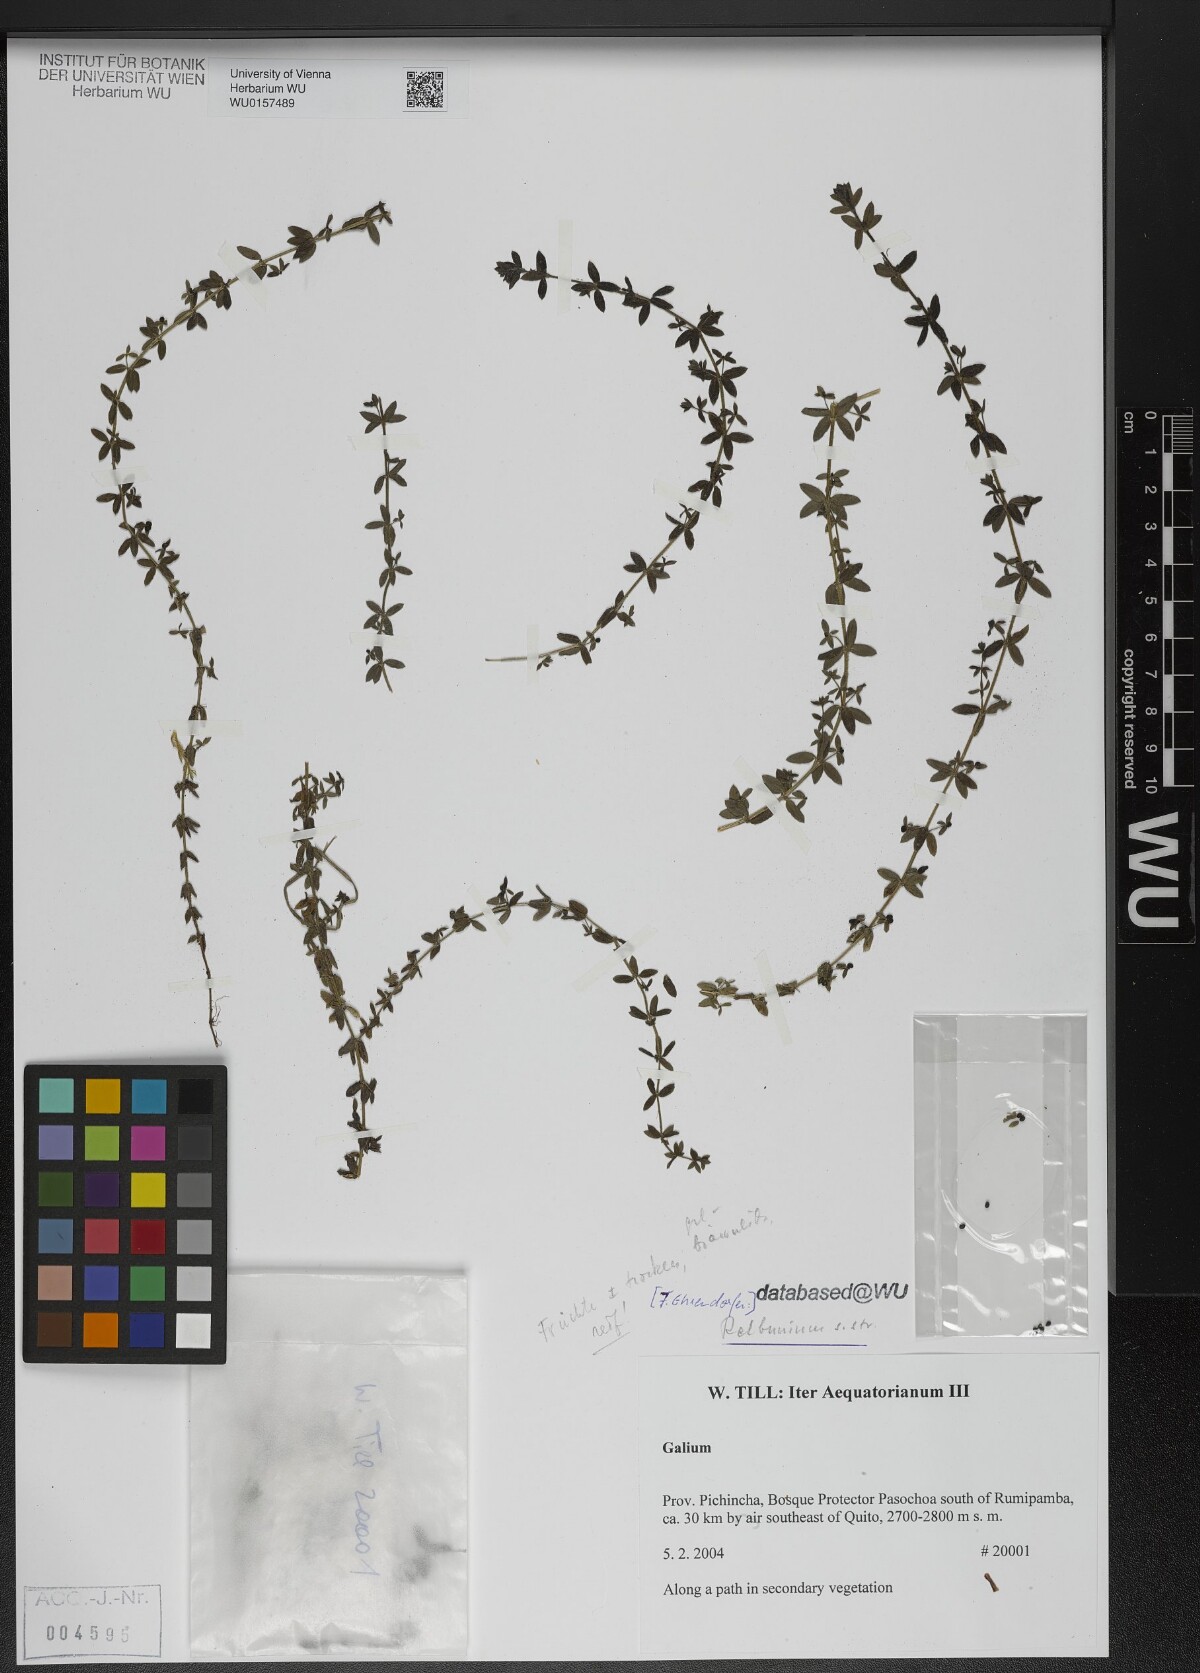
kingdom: Plantae
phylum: Tracheophyta
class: Magnoliopsida
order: Gentianales
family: Rubiaceae
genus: Galium
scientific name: Galium
